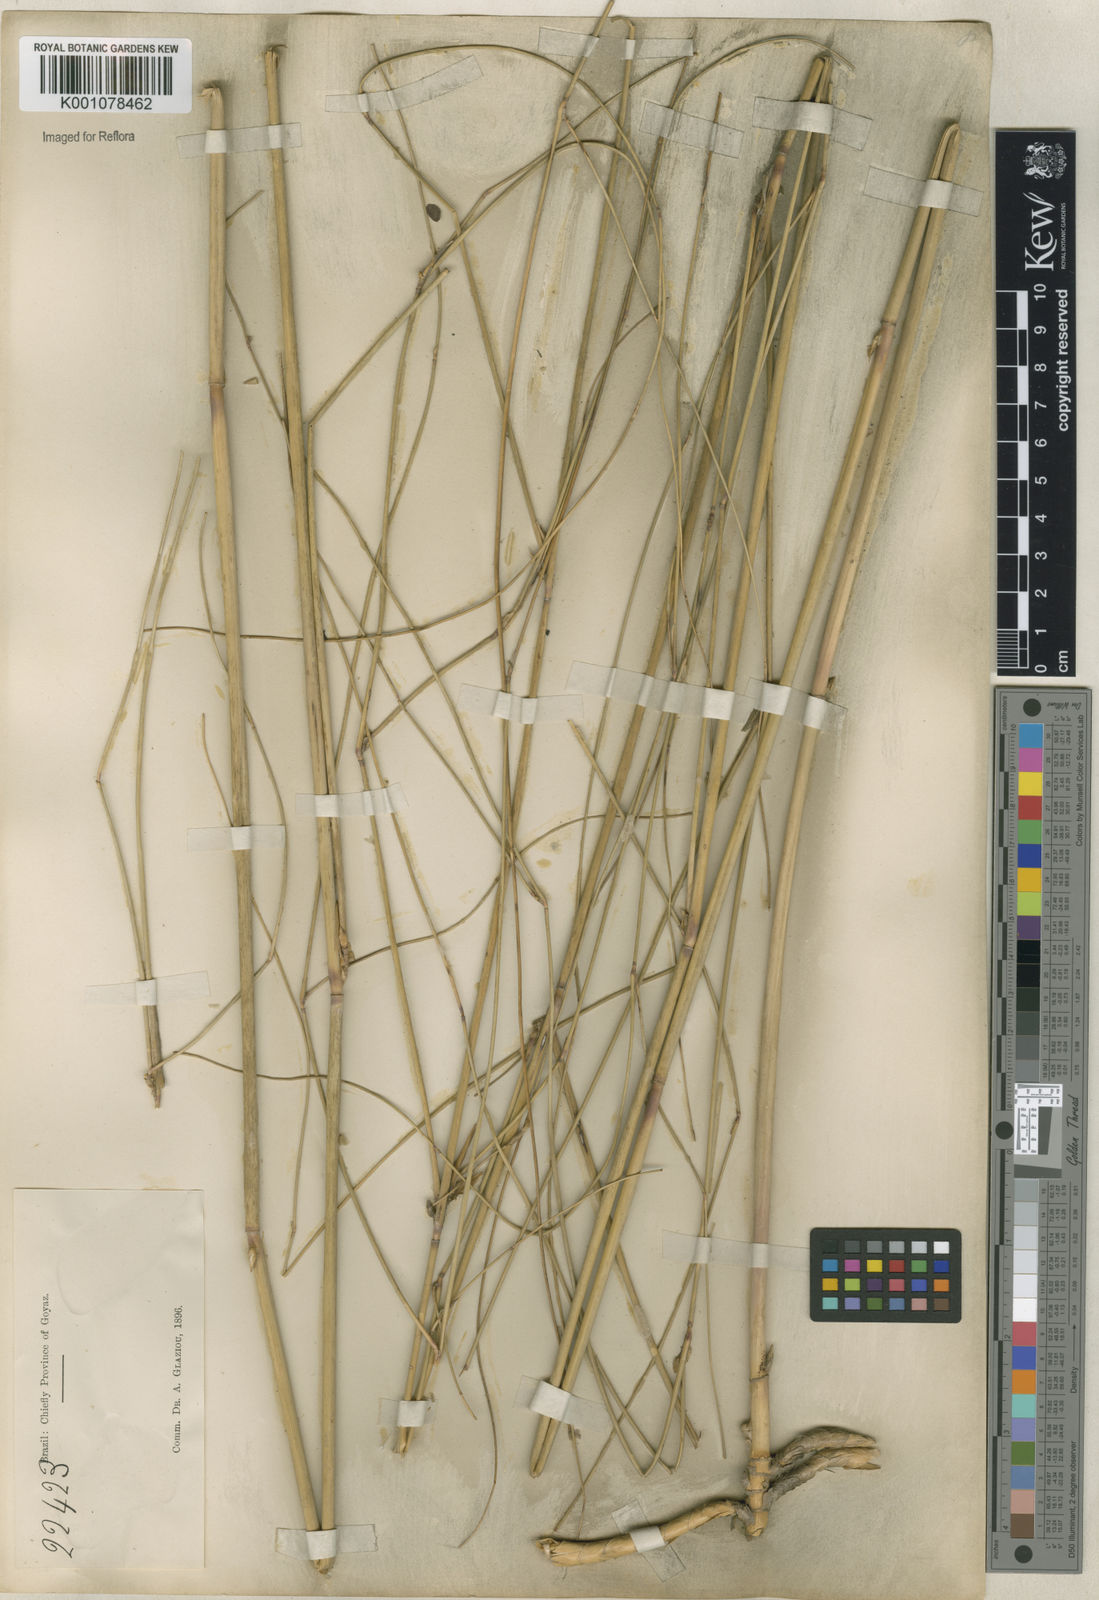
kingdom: Plantae
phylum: Tracheophyta
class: Liliopsida
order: Poales
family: Poaceae
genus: Panicum
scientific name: Panicum tricholaenoides
